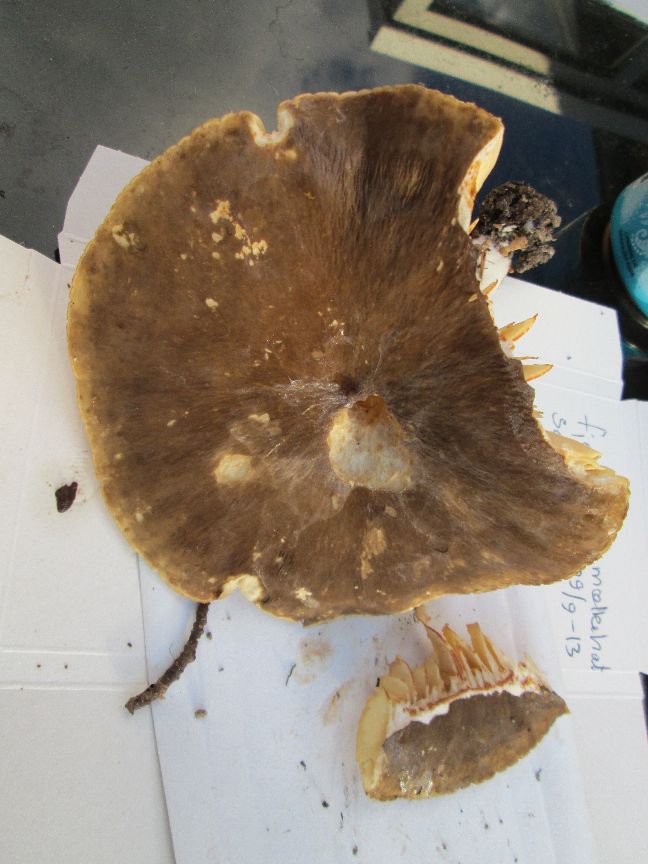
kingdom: Fungi
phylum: Basidiomycota
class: Agaricomycetes
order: Russulales
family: Russulaceae
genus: Lactarius
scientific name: Lactarius romagnesii
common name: fjernbladet mælkehat
